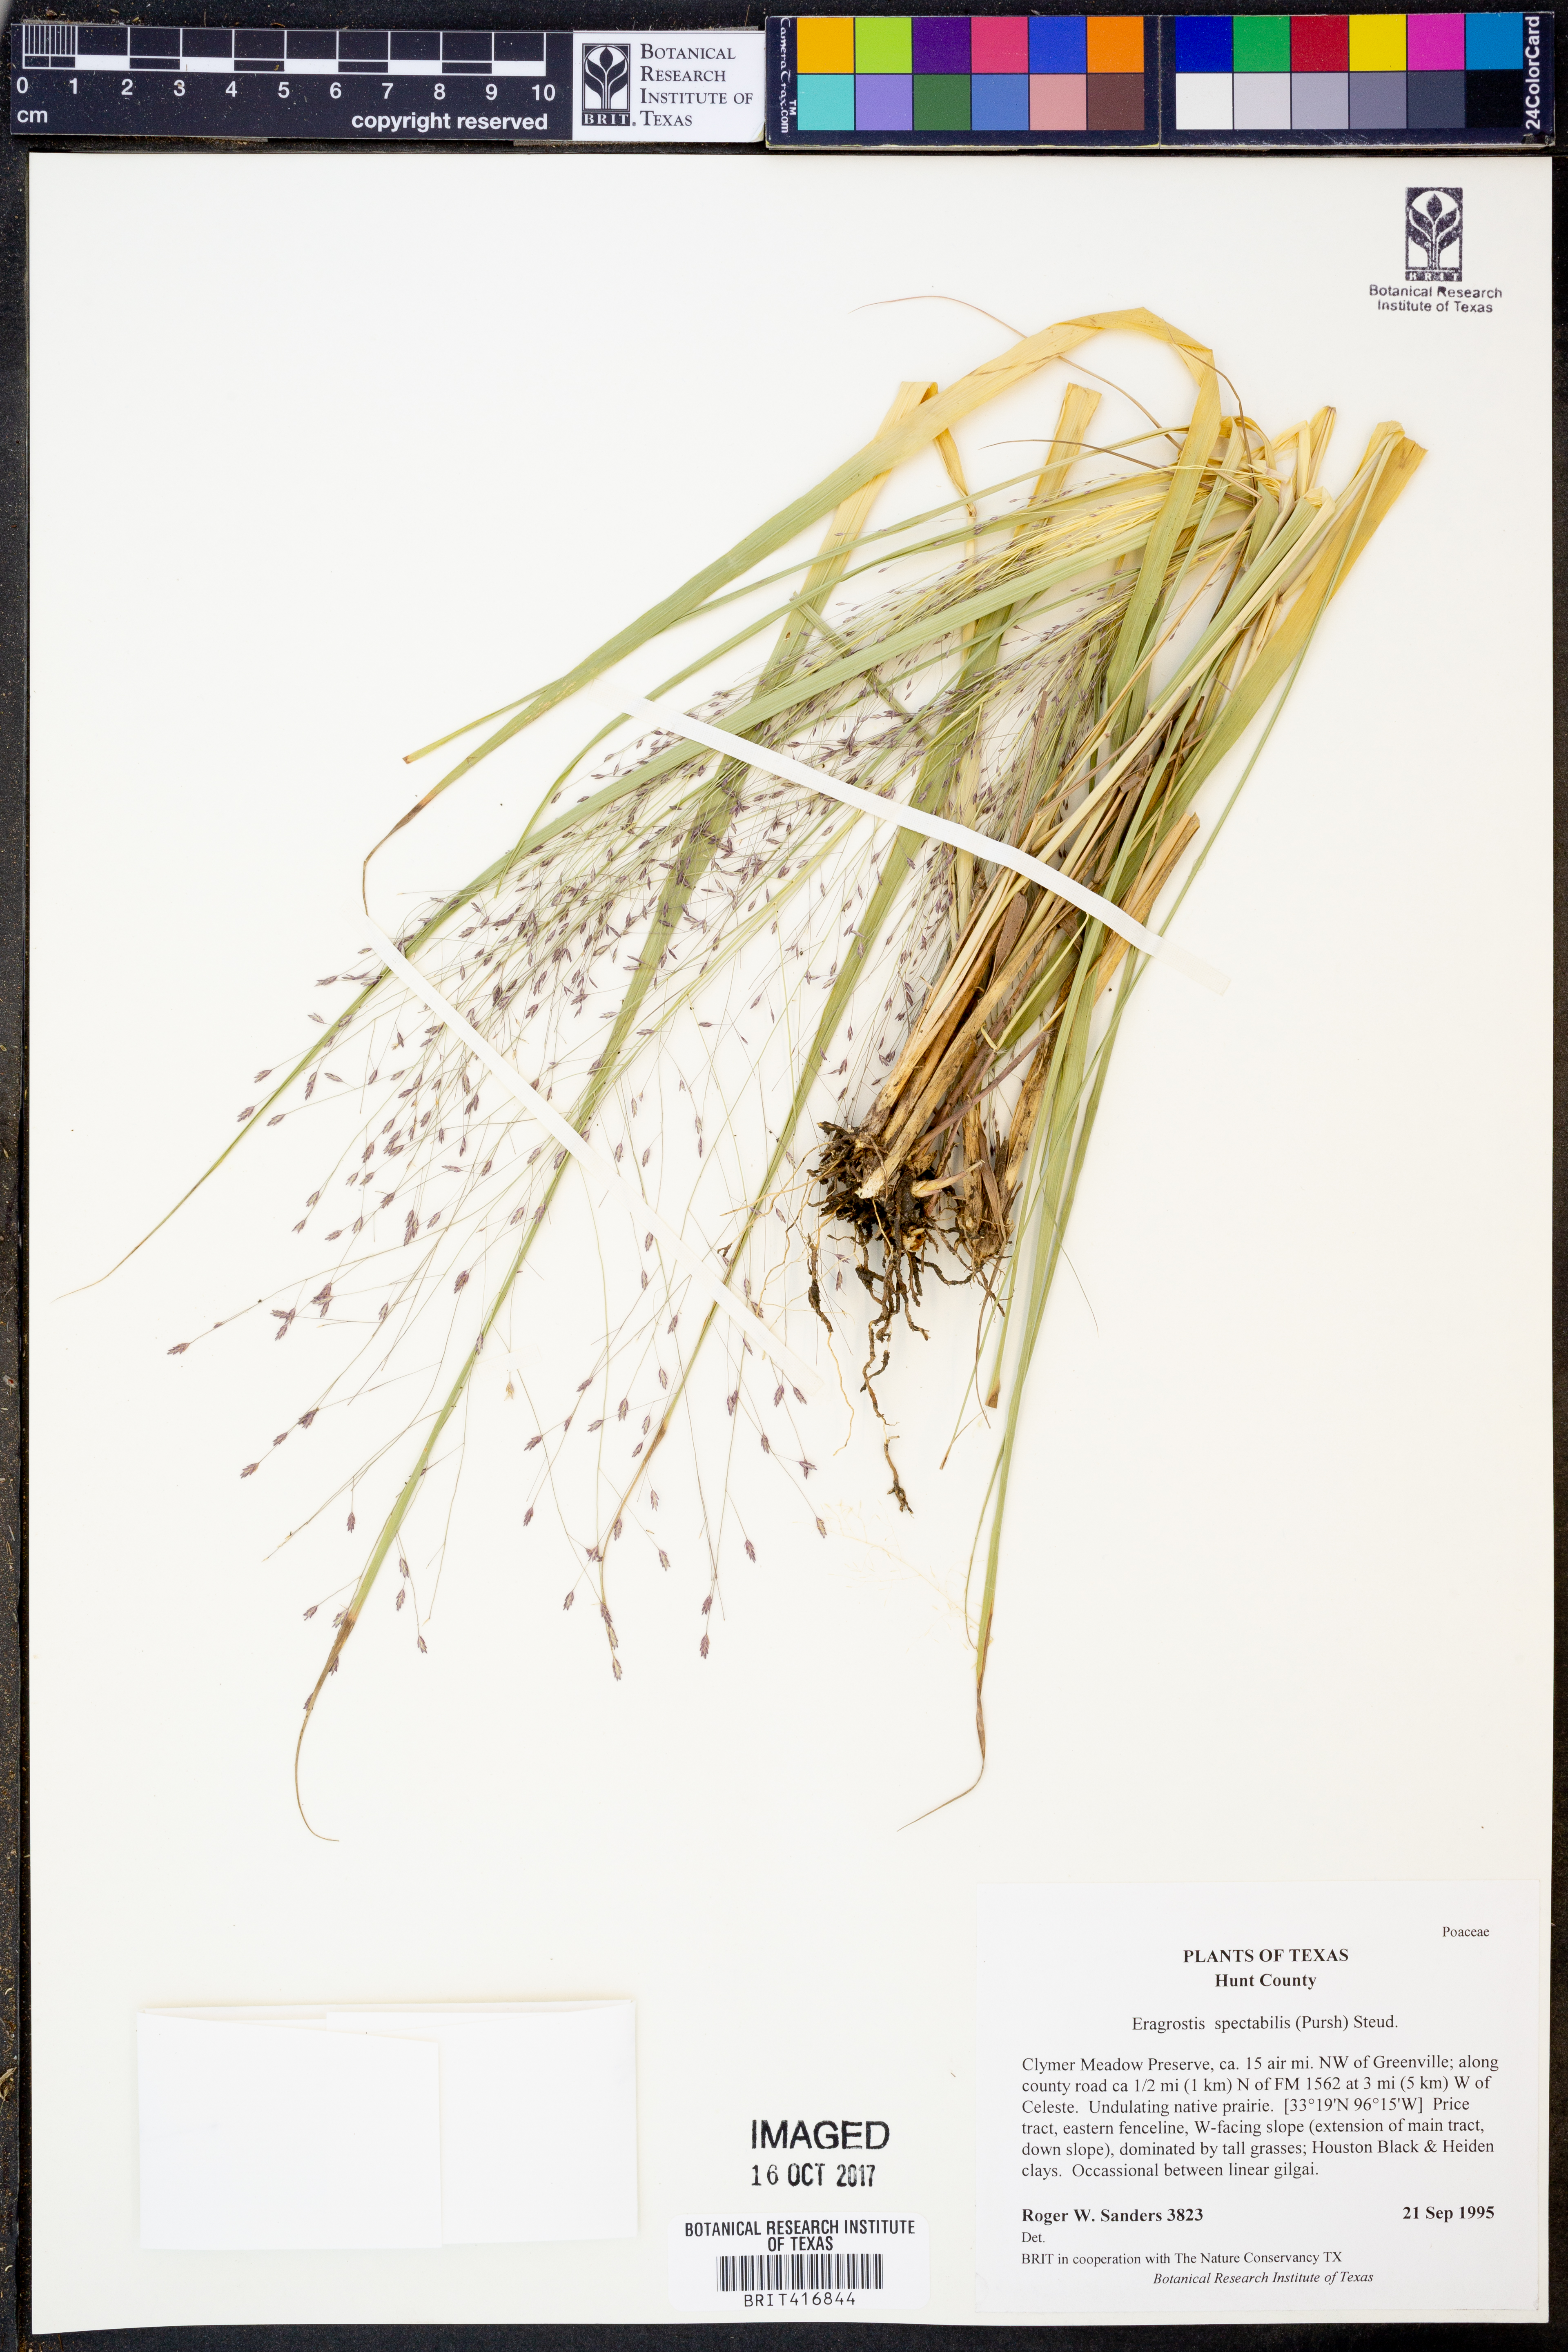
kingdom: Plantae
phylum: Tracheophyta
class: Liliopsida
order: Poales
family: Poaceae
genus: Eragrostis
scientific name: Eragrostis spectabilis
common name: Petticoat-climber
